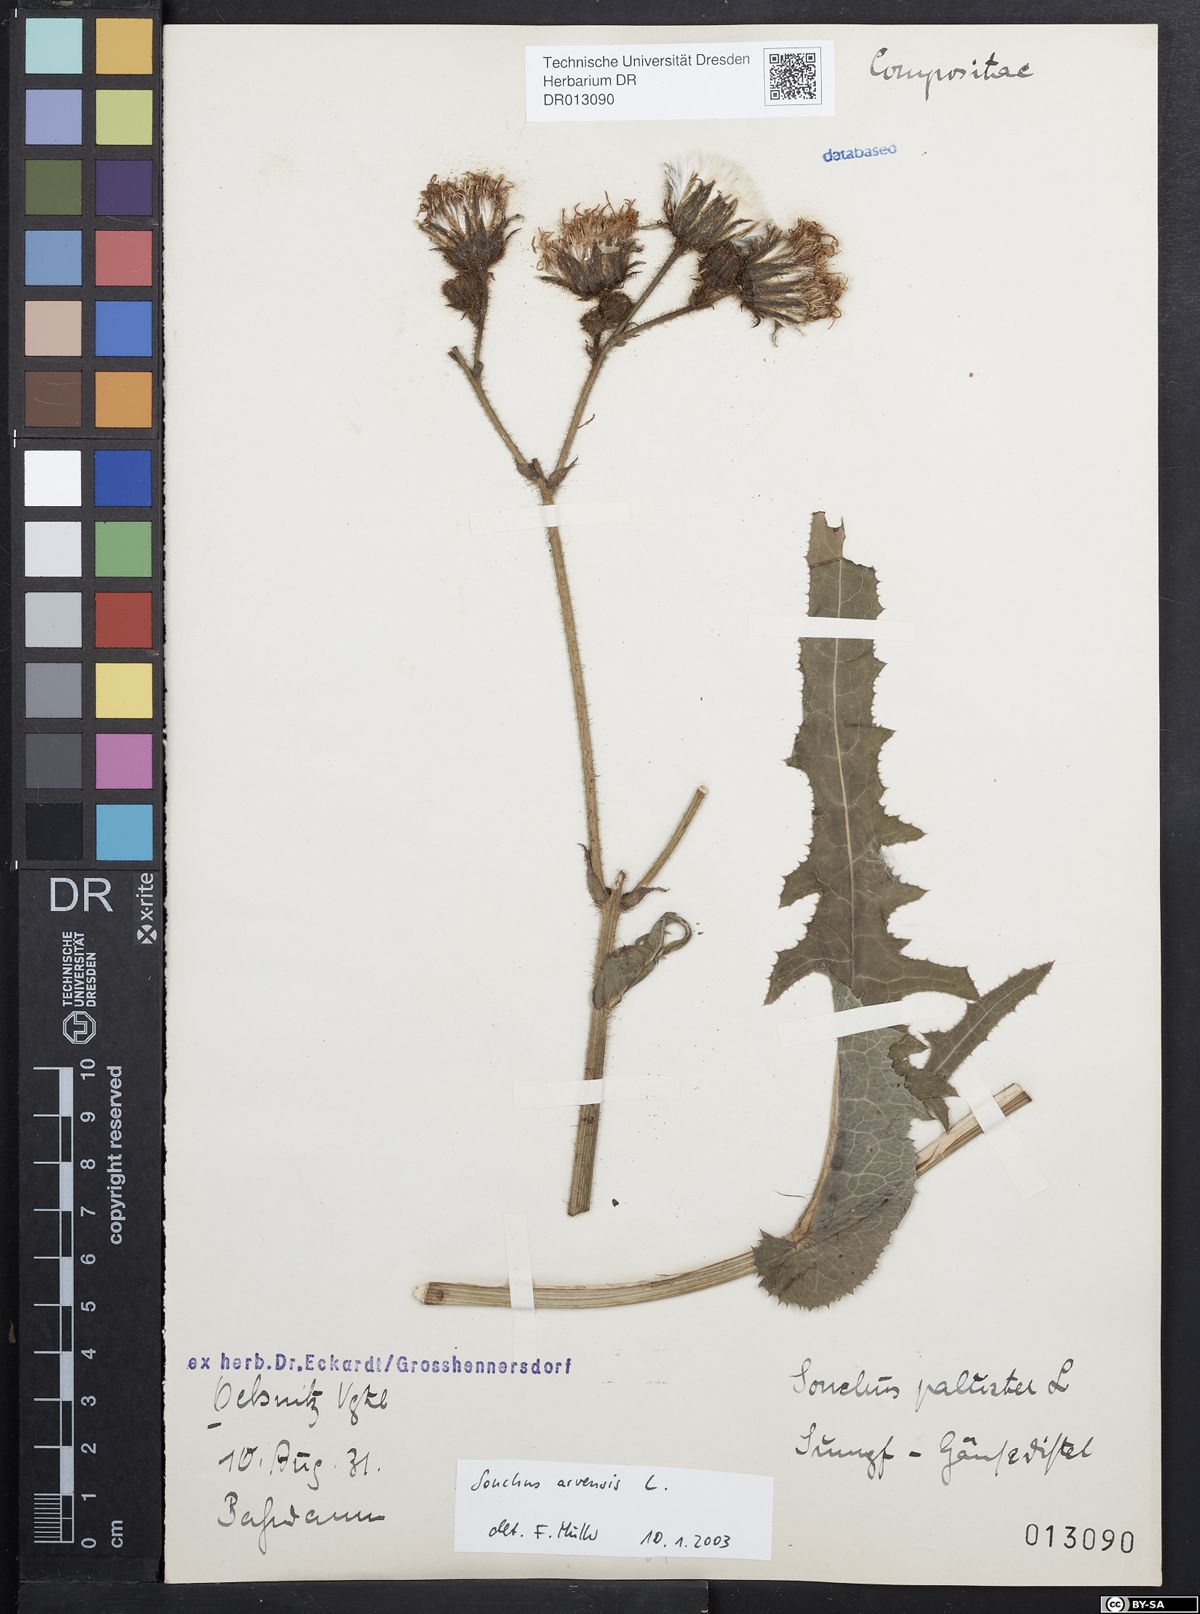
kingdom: Plantae
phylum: Tracheophyta
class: Magnoliopsida
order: Asterales
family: Asteraceae
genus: Sonchus
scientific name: Sonchus arvensis
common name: Perennial sow-thistle
